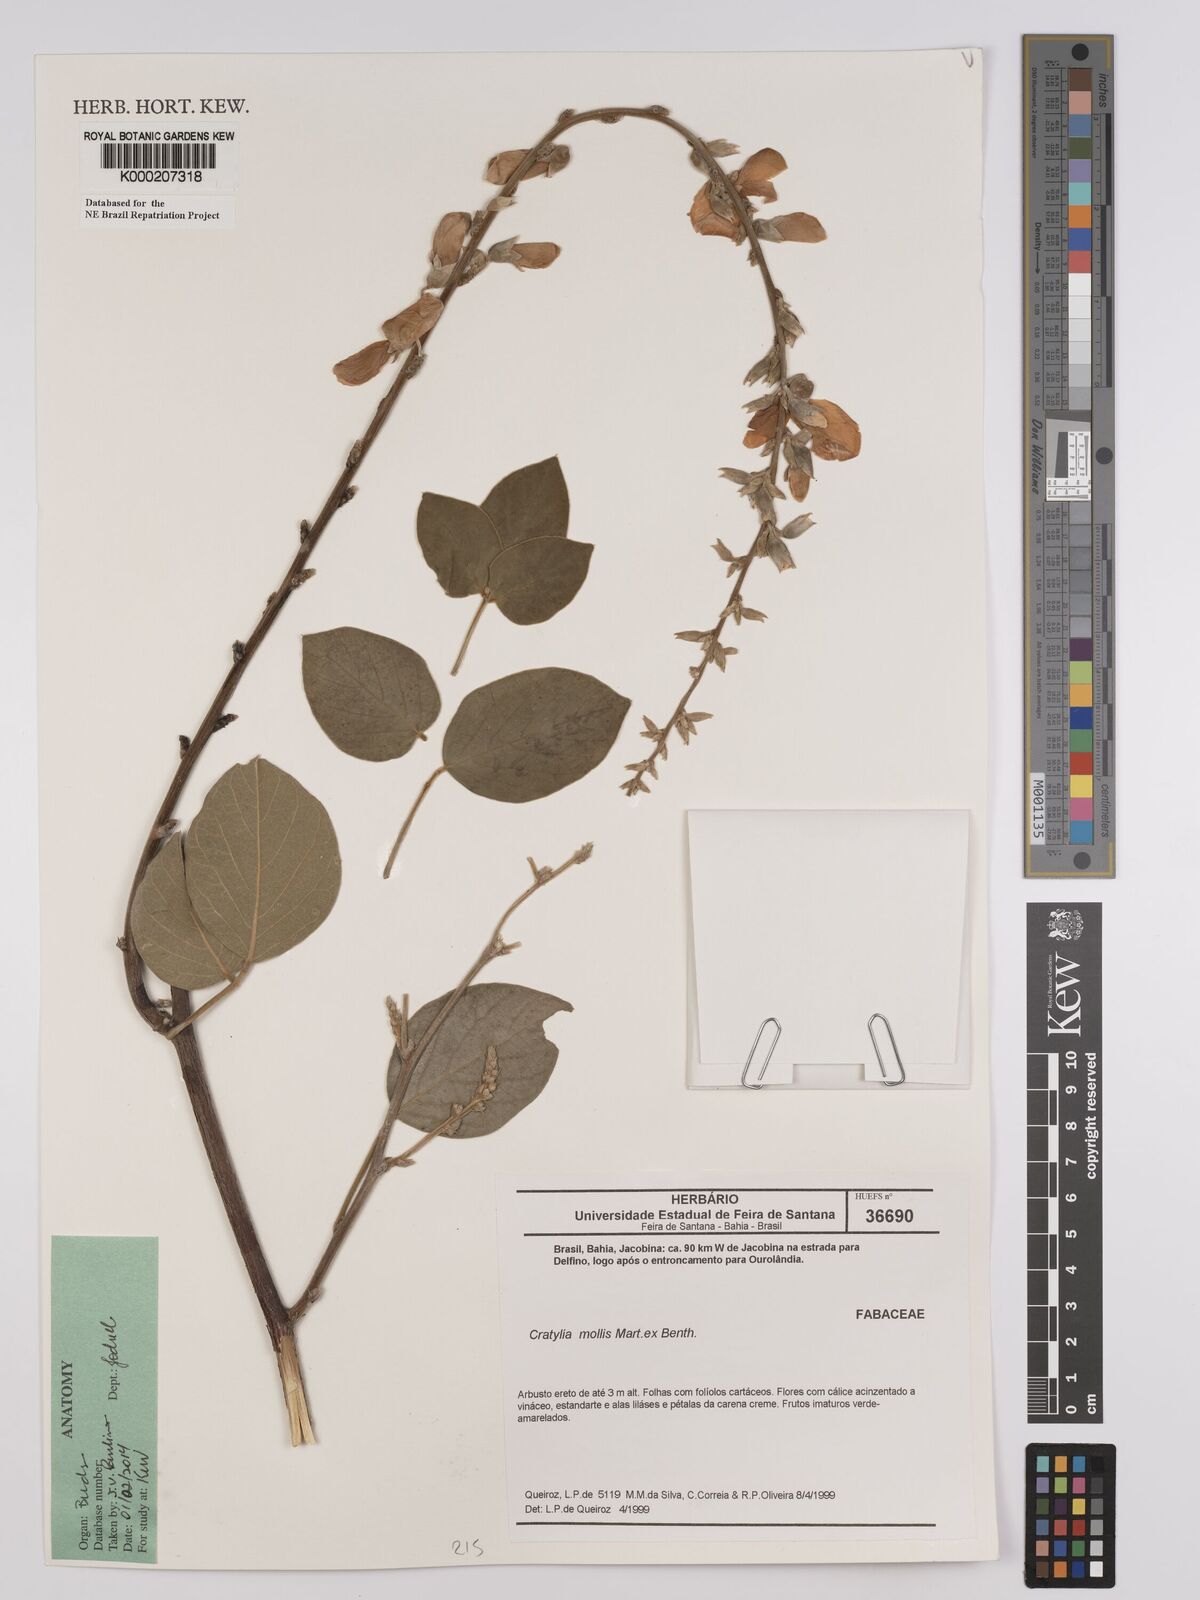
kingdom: Plantae
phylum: Tracheophyta
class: Magnoliopsida
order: Fabales
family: Fabaceae
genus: Cratylia
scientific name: Cratylia mollis
